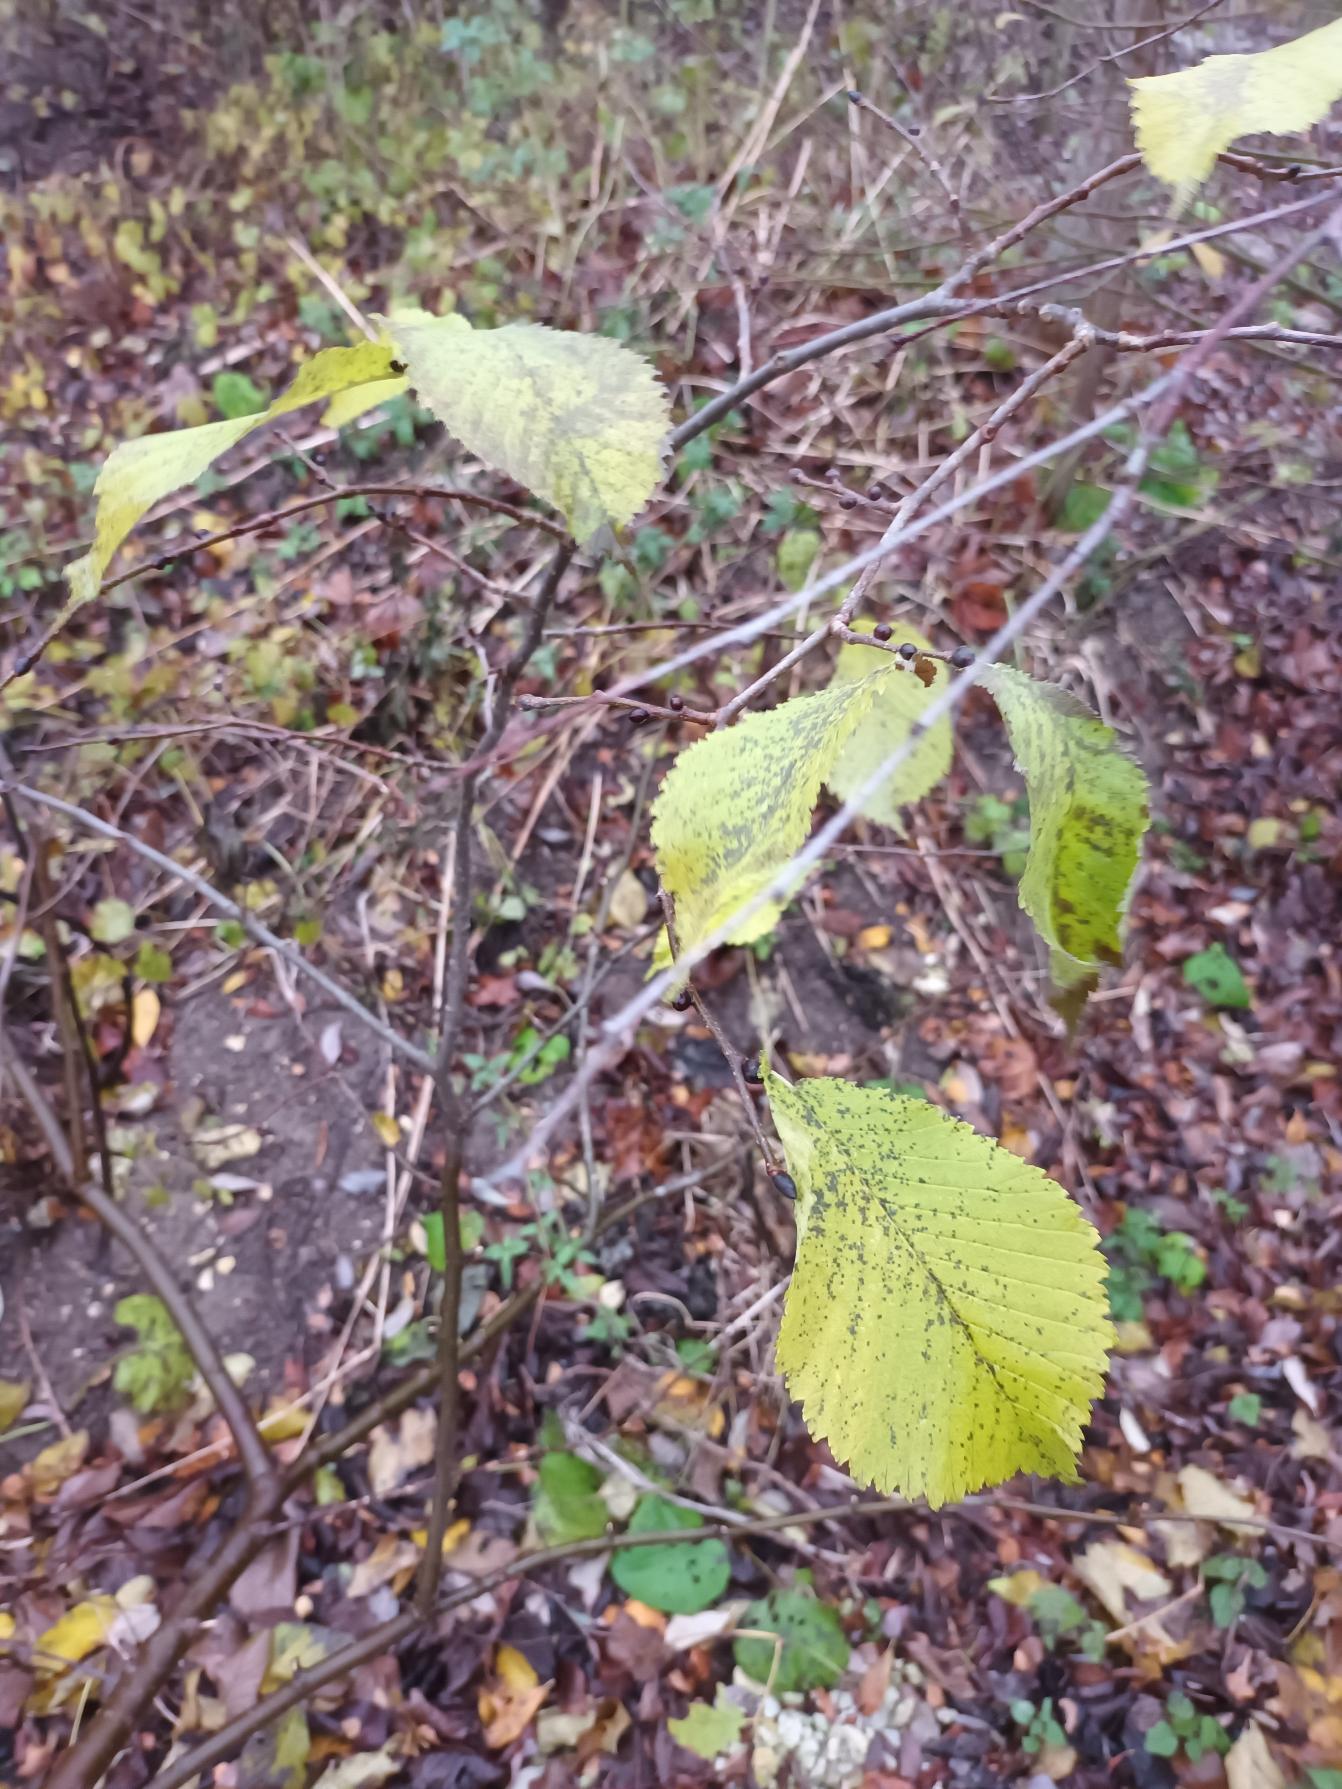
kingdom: Plantae
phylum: Tracheophyta
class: Magnoliopsida
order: Rosales
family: Ulmaceae
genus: Ulmus
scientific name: Ulmus glabra
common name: Skov-elm/storbladet elm
